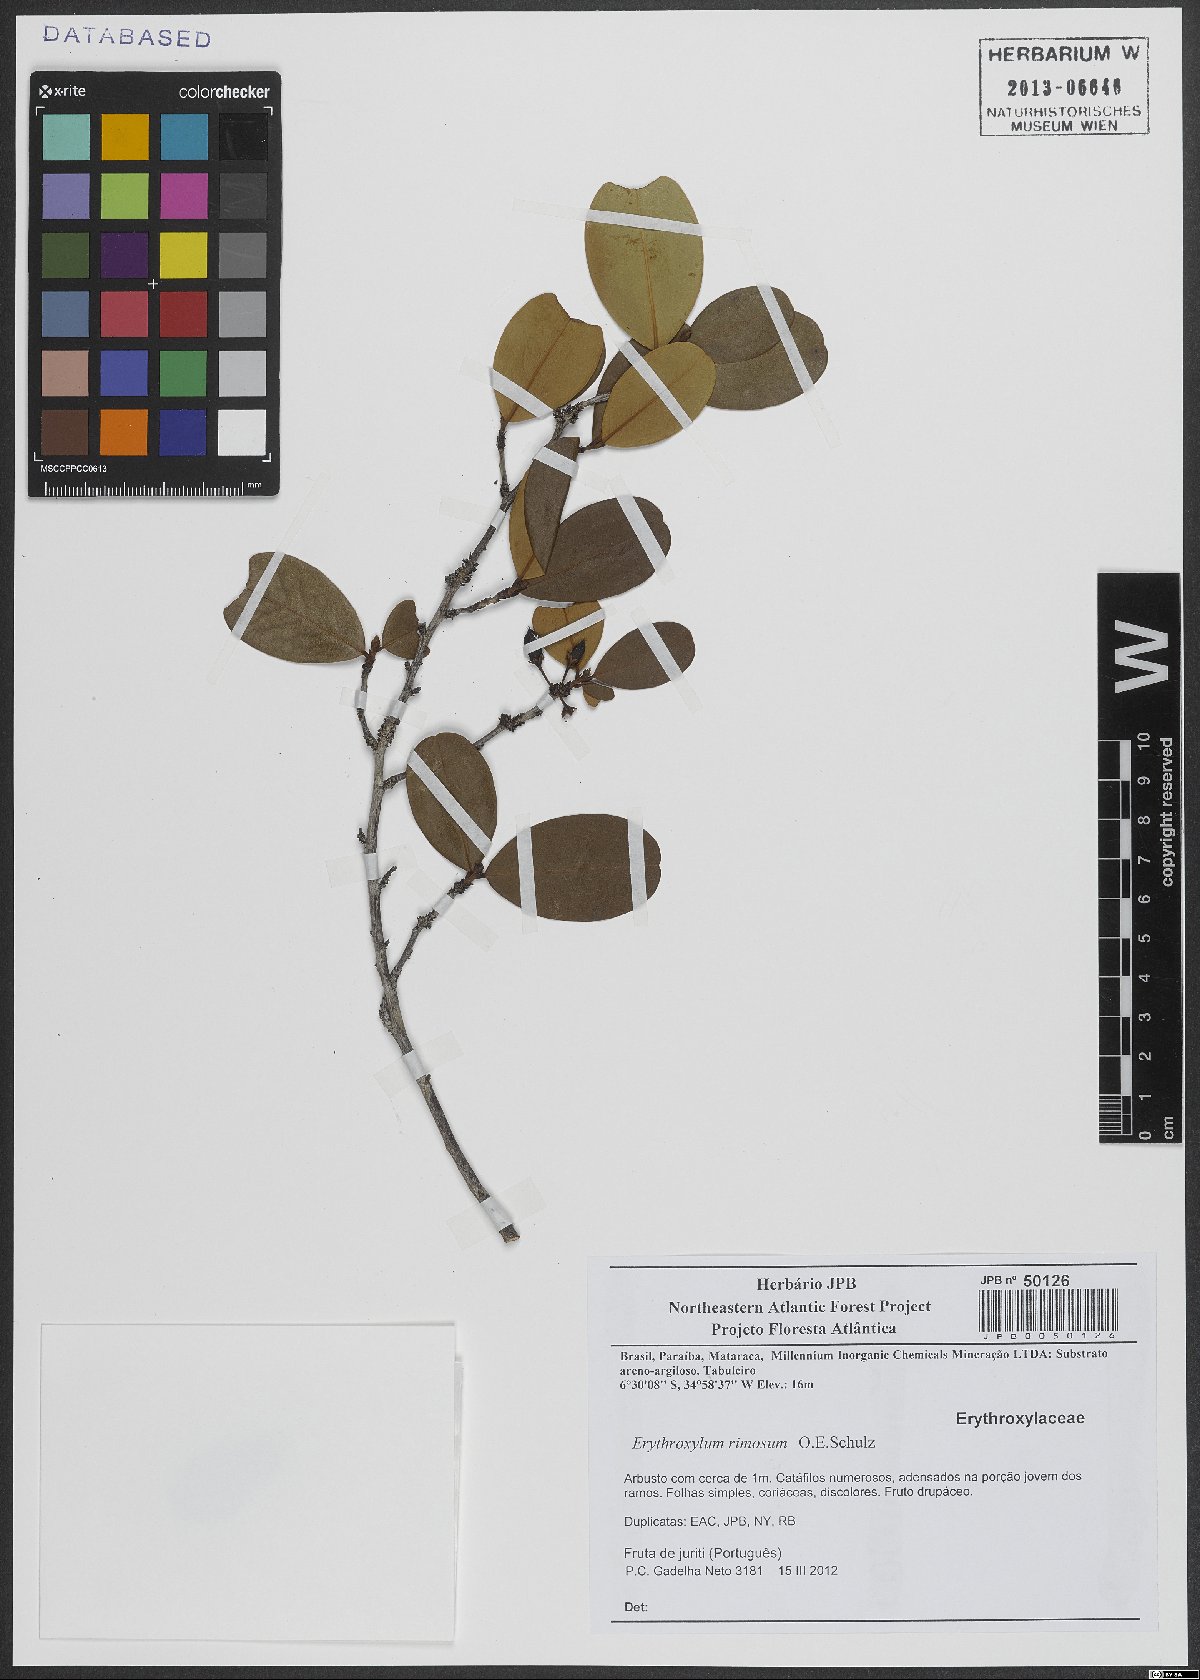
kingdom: Plantae
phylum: Tracheophyta
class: Magnoliopsida
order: Malpighiales
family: Erythroxylaceae
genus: Erythroxylum
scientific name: Erythroxylum rimosum
